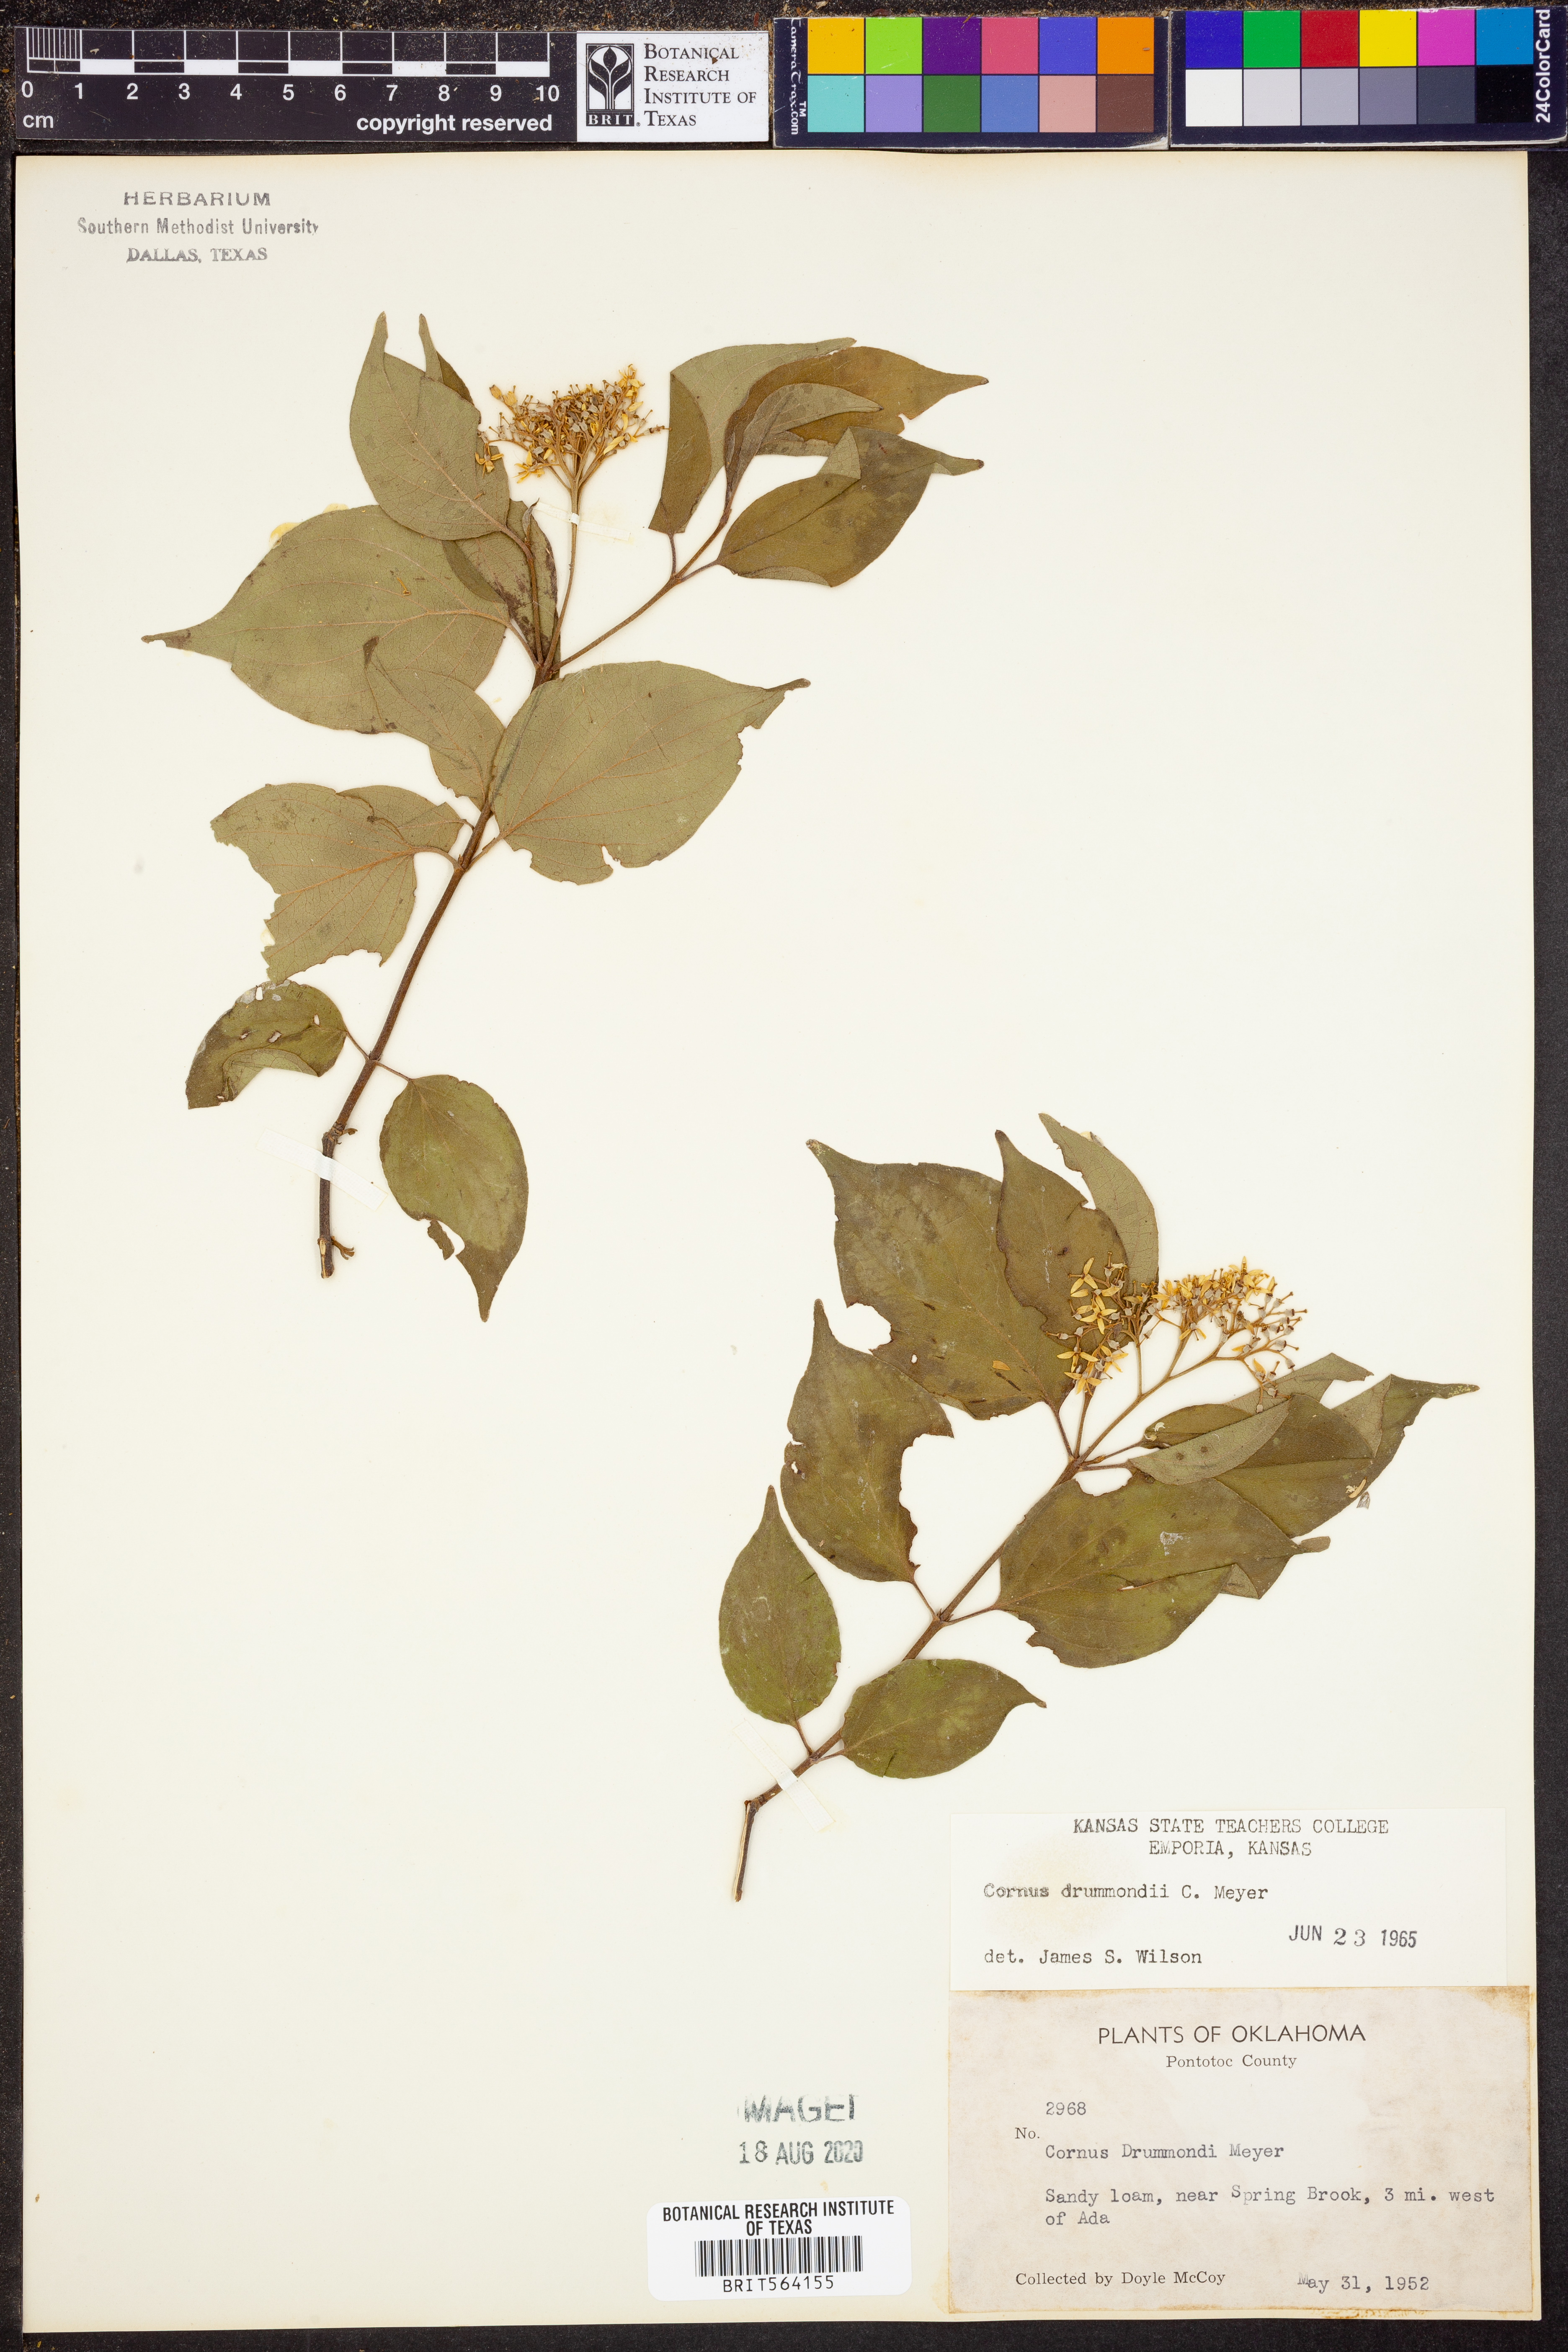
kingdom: Plantae
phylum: Tracheophyta
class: Magnoliopsida
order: Cornales
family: Cornaceae
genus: Cornus
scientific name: Cornus drummondii
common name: Rough-leaf dogwood
